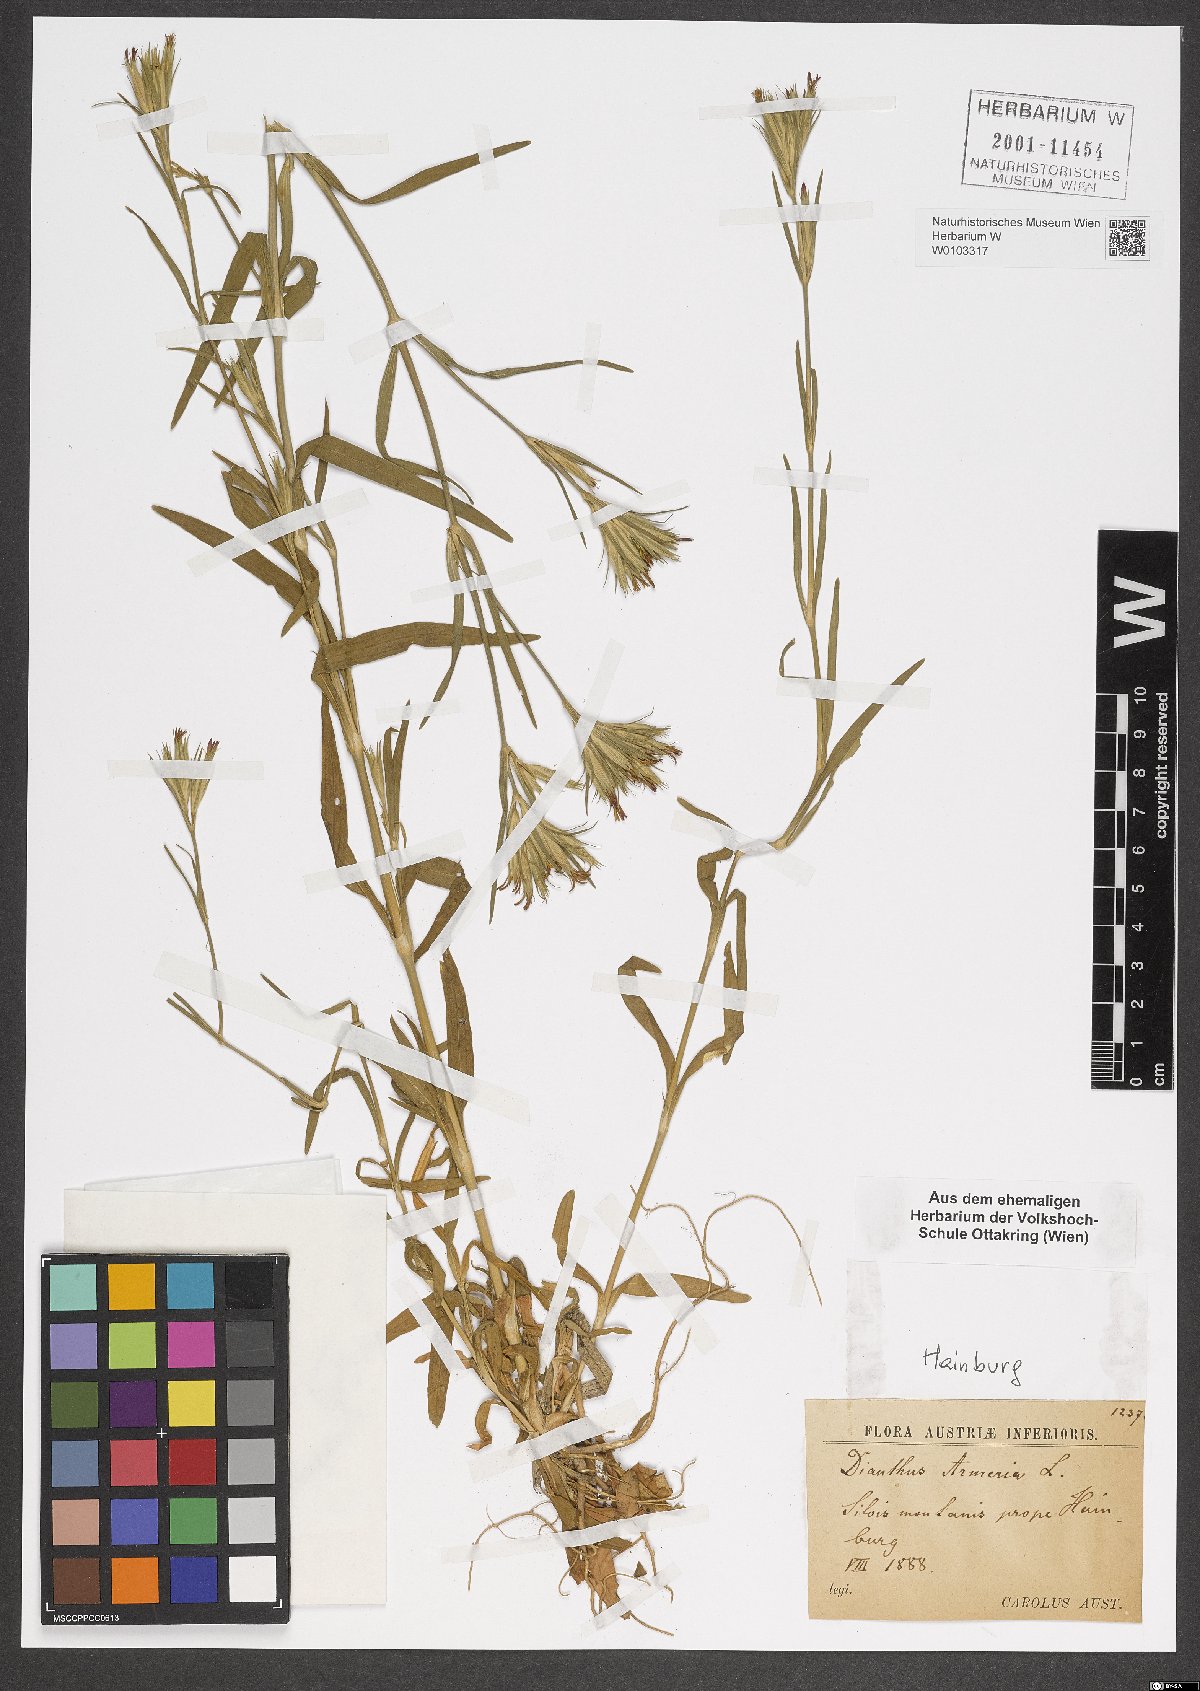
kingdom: Plantae
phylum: Tracheophyta
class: Magnoliopsida
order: Caryophyllales
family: Caryophyllaceae
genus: Dianthus
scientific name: Dianthus armeria
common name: Deptford pink
